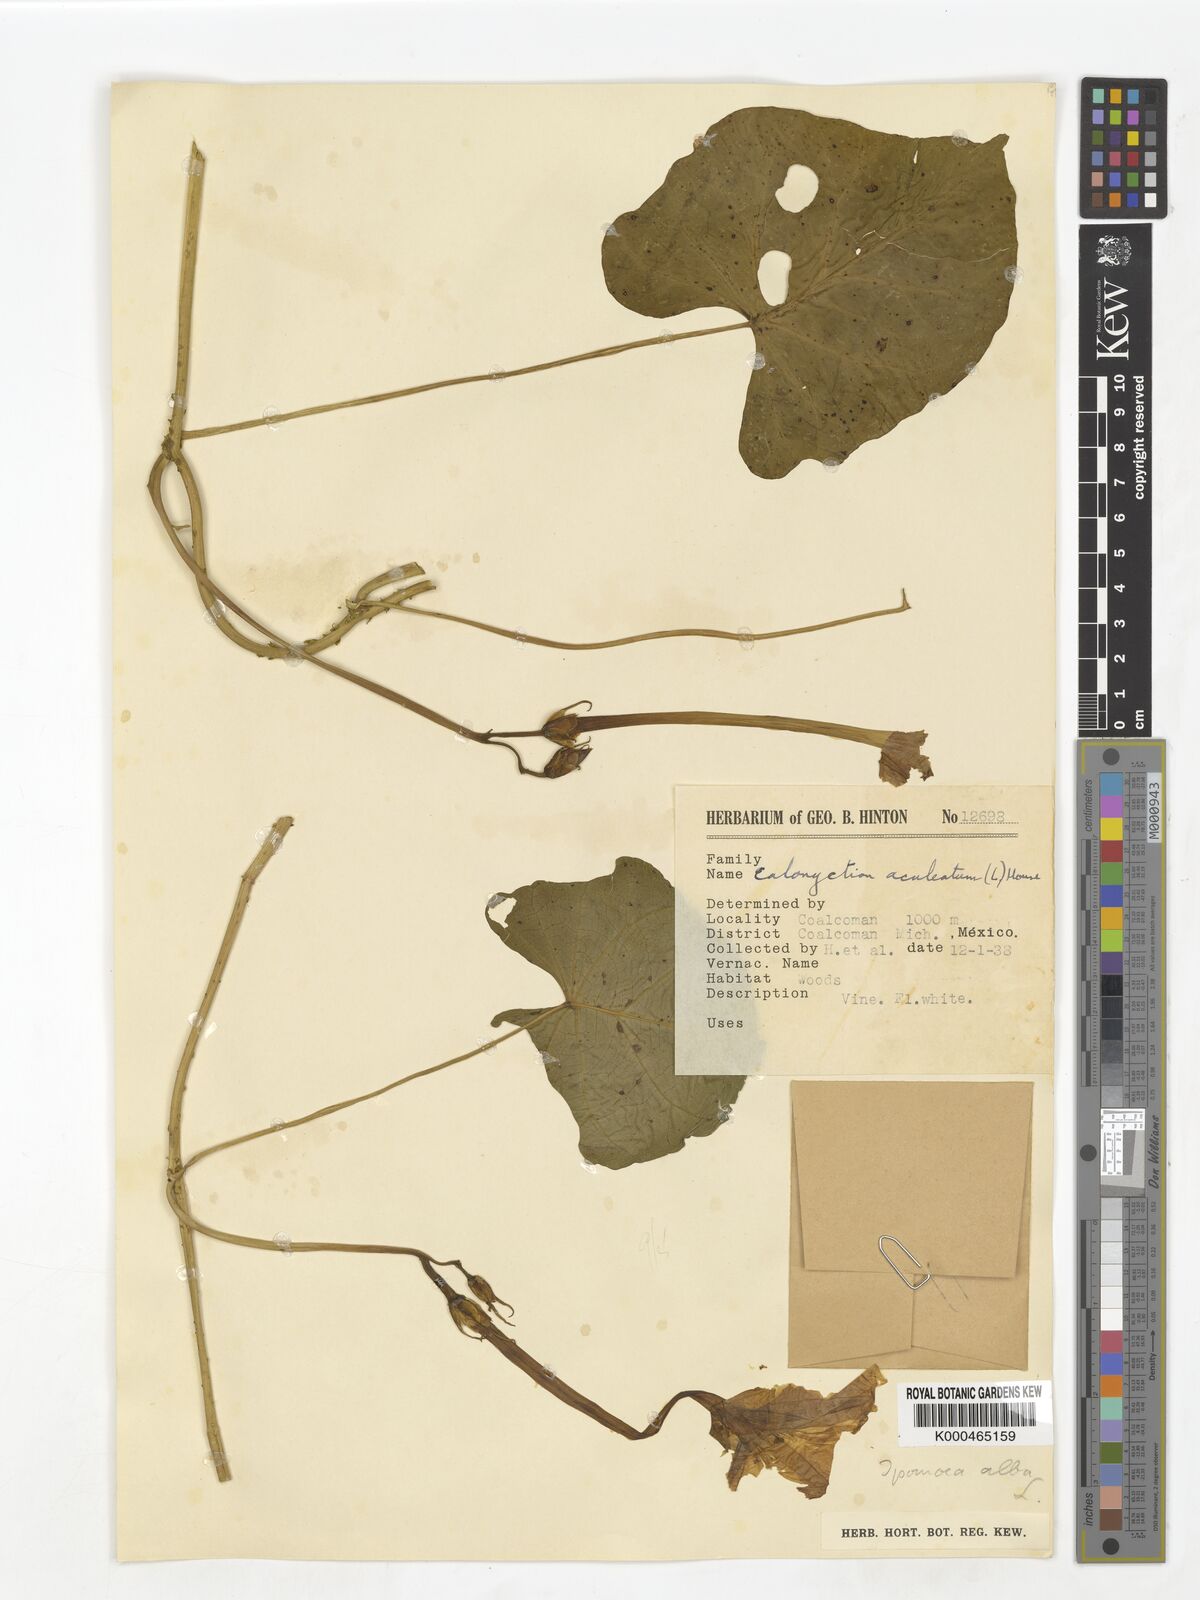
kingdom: Plantae
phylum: Tracheophyta
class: Magnoliopsida
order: Solanales
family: Convolvulaceae
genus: Ipomoea
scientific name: Ipomoea alba
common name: Moonflower
